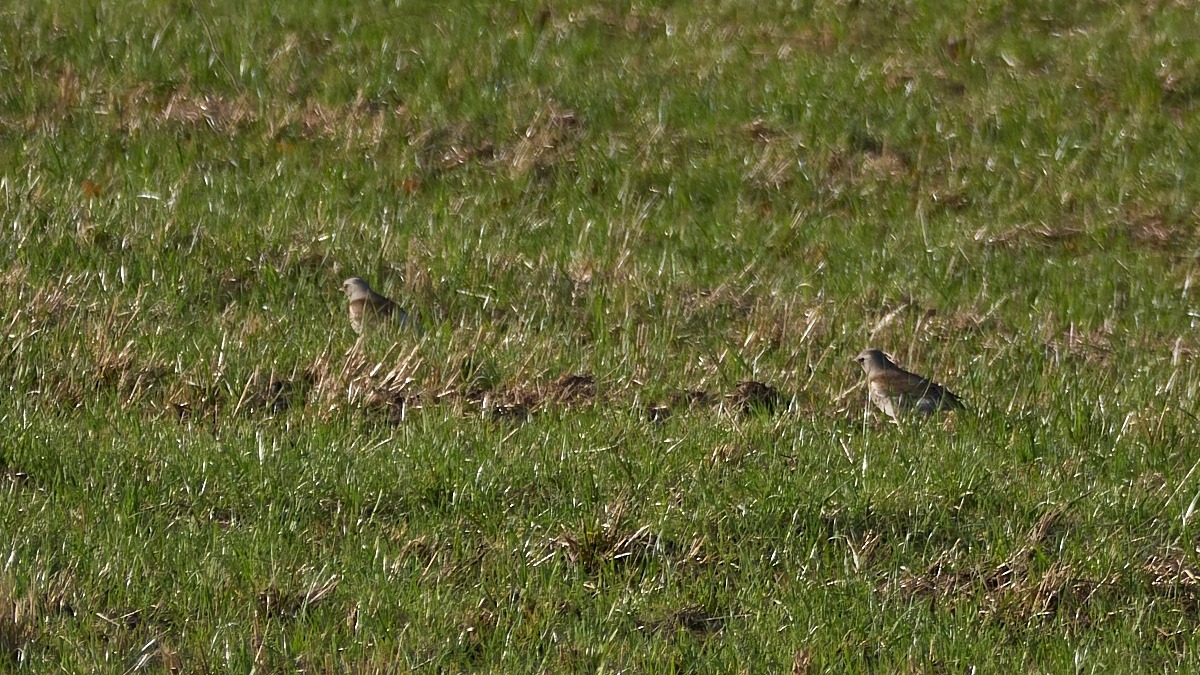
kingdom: Animalia
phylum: Chordata
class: Aves
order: Passeriformes
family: Turdidae
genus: Turdus
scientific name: Turdus pilaris
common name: Sjagger
